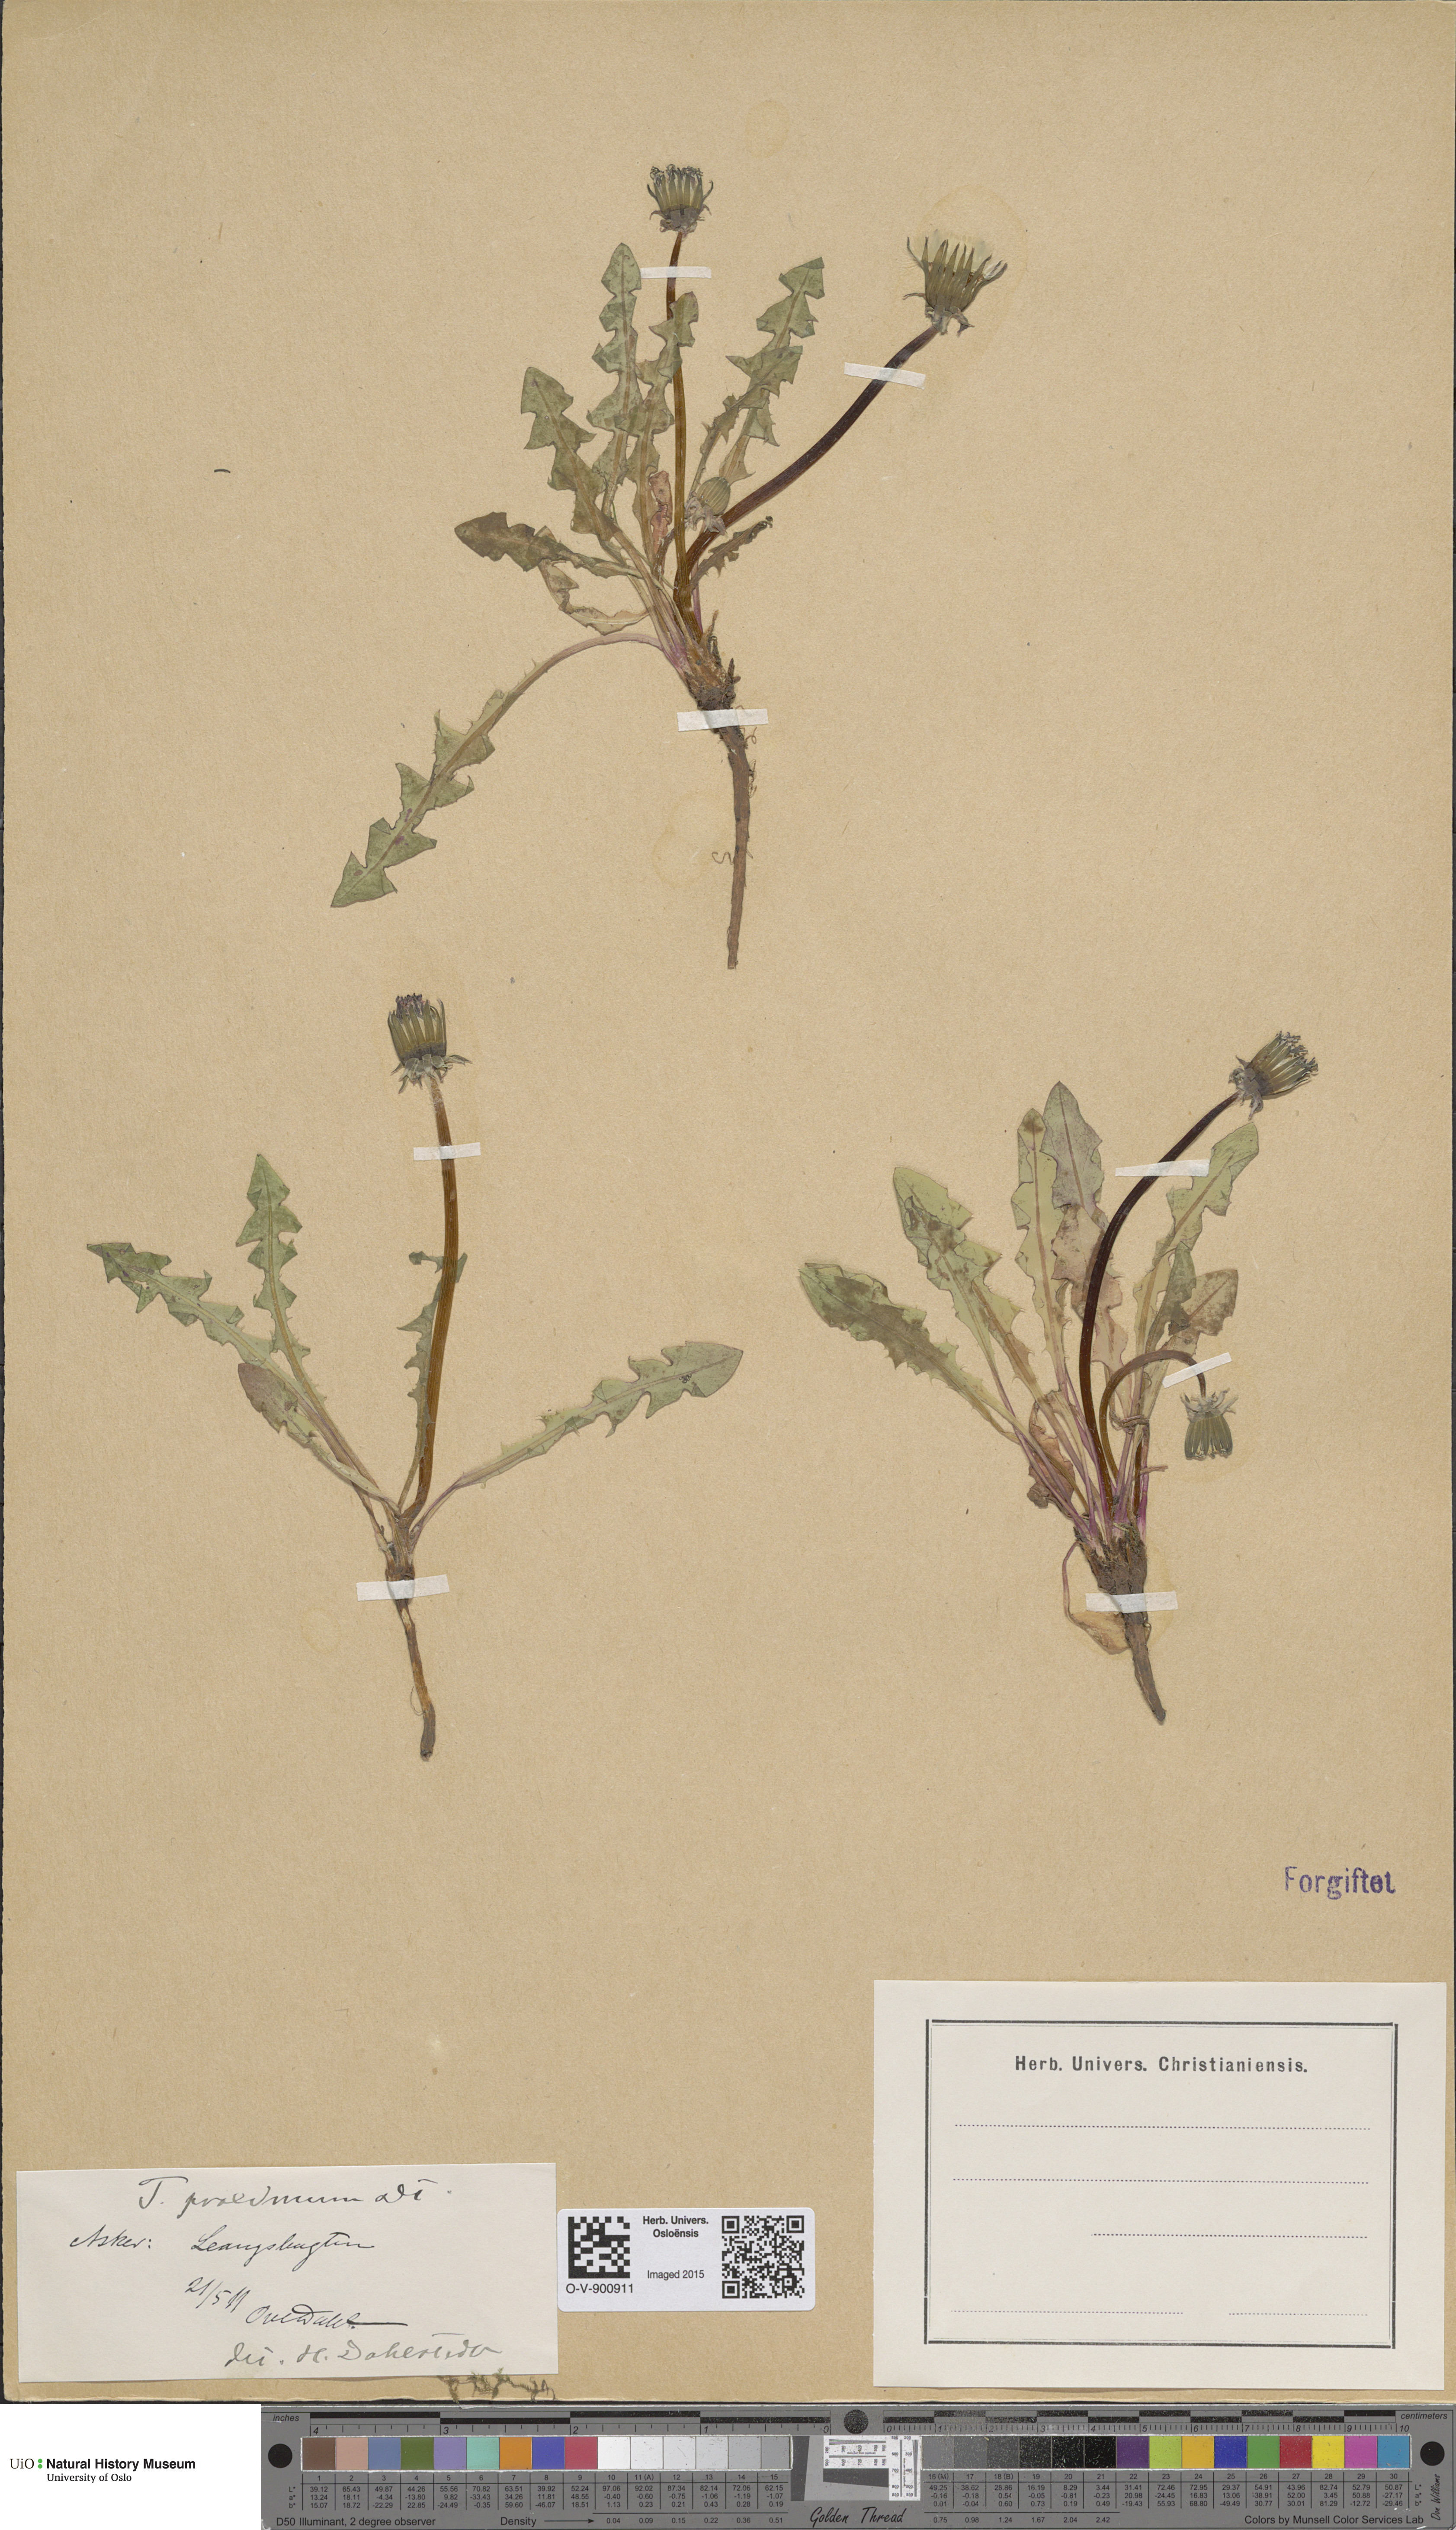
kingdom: Plantae
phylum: Tracheophyta
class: Magnoliopsida
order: Asterales
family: Asteraceae
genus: Taraxacum
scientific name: Taraxacum proximum
